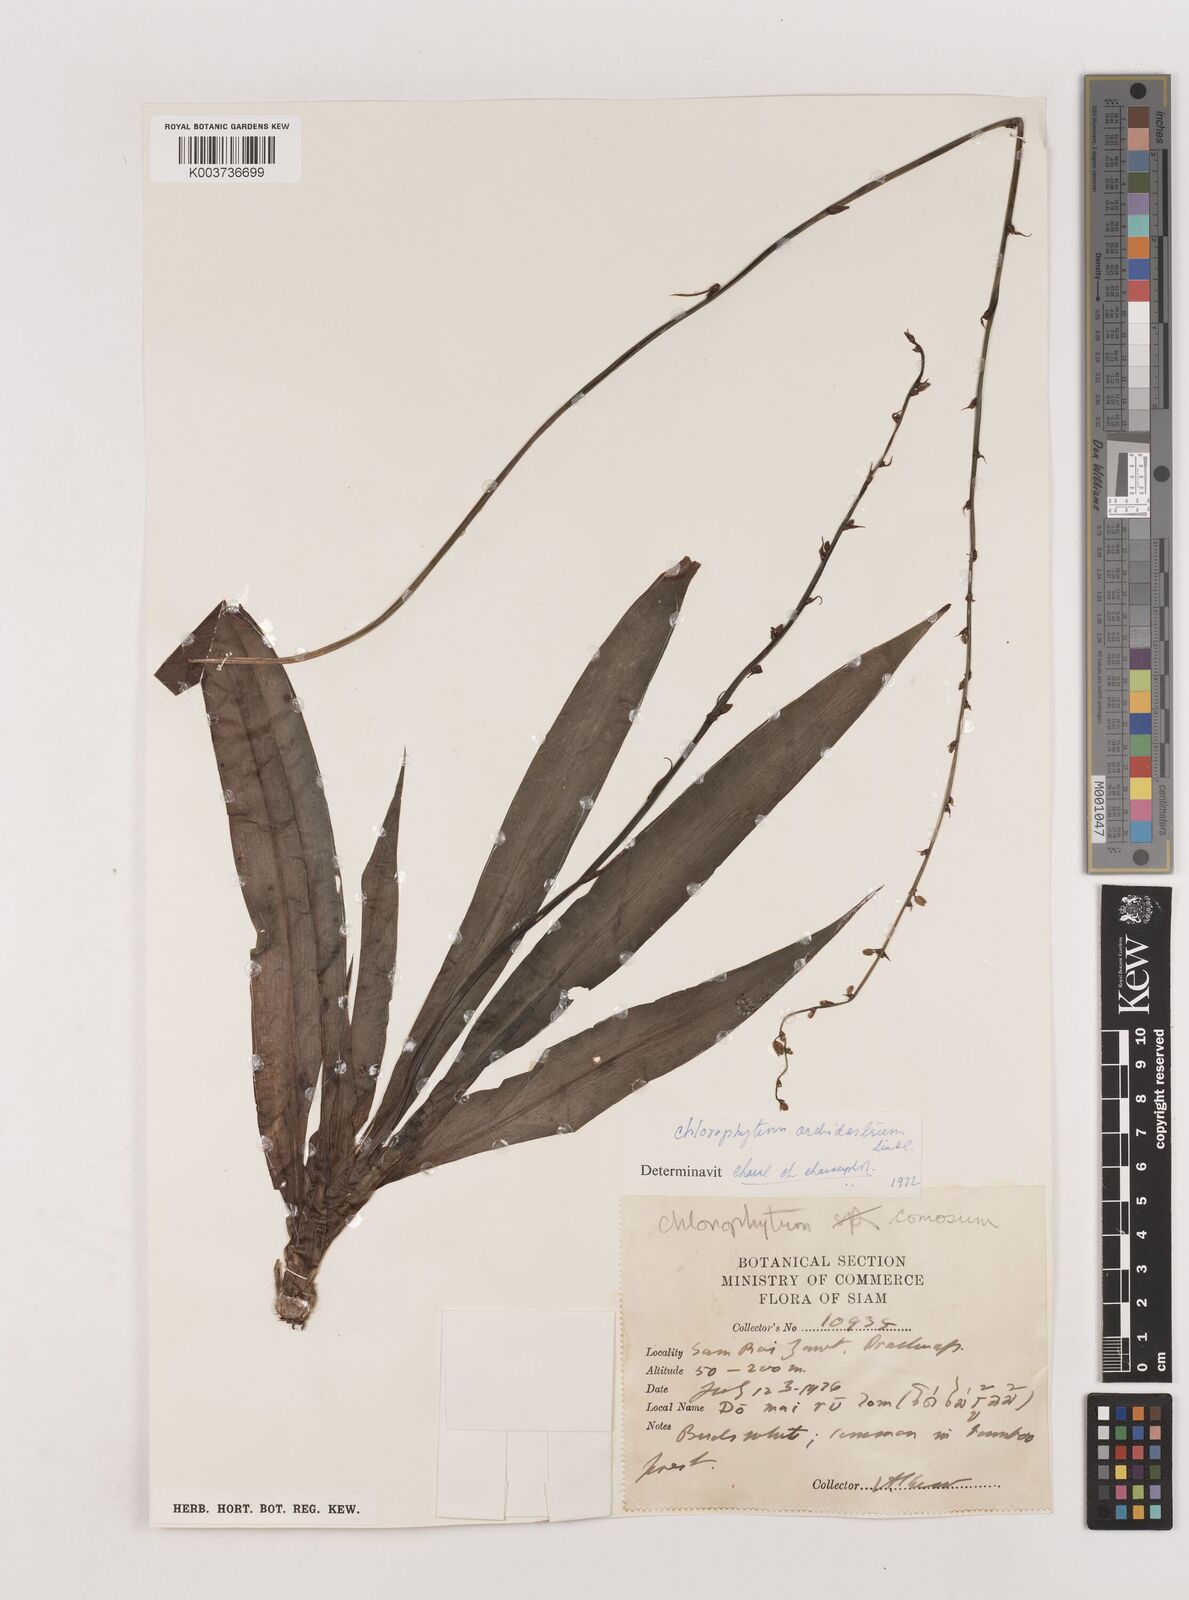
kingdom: Plantae
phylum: Tracheophyta
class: Liliopsida
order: Asparagales
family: Asparagaceae
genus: Chlorophytum
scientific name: Chlorophytum orchidastrum
